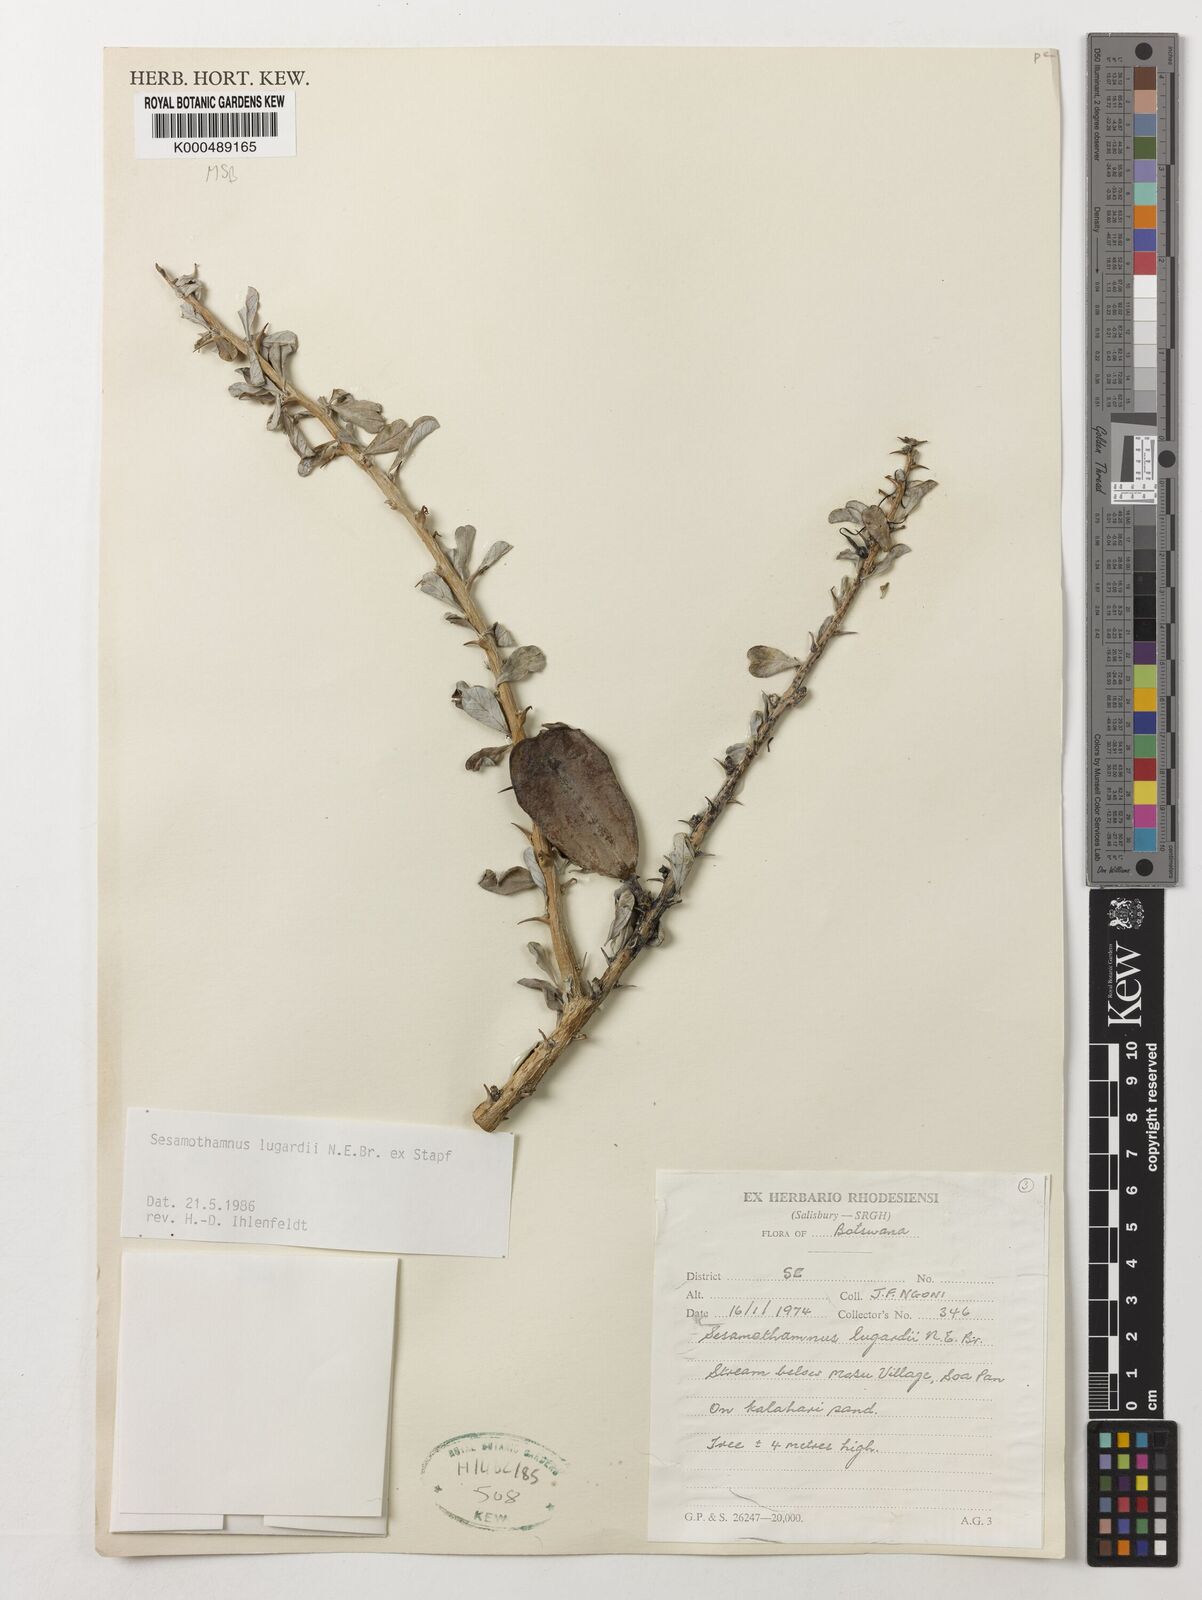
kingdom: Plantae
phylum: Tracheophyta
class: Magnoliopsida
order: Lamiales
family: Pedaliaceae
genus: Sesamothamnus
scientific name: Sesamothamnus lugardii
